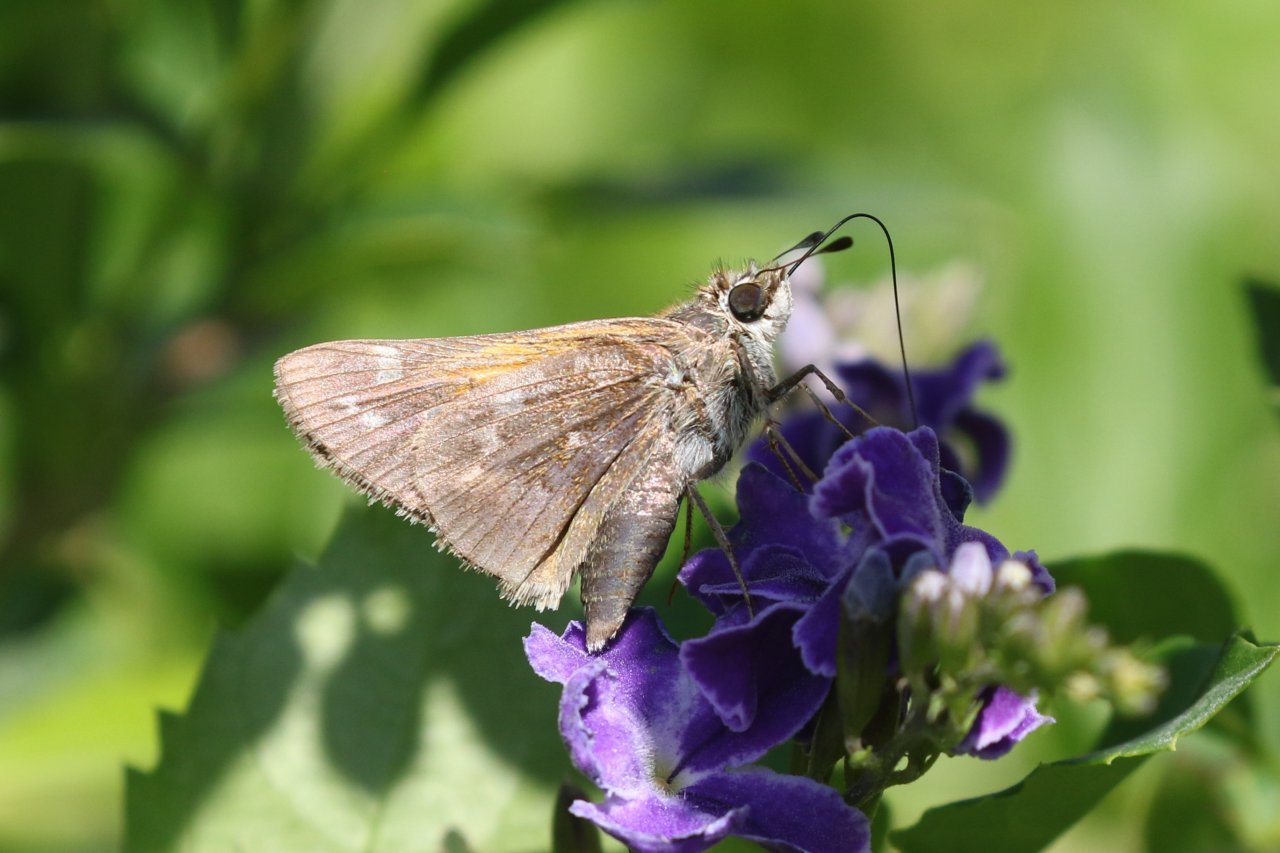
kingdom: Animalia
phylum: Arthropoda
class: Insecta
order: Lepidoptera
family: Hesperiidae
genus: Atalopedes
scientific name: Atalopedes campestris
